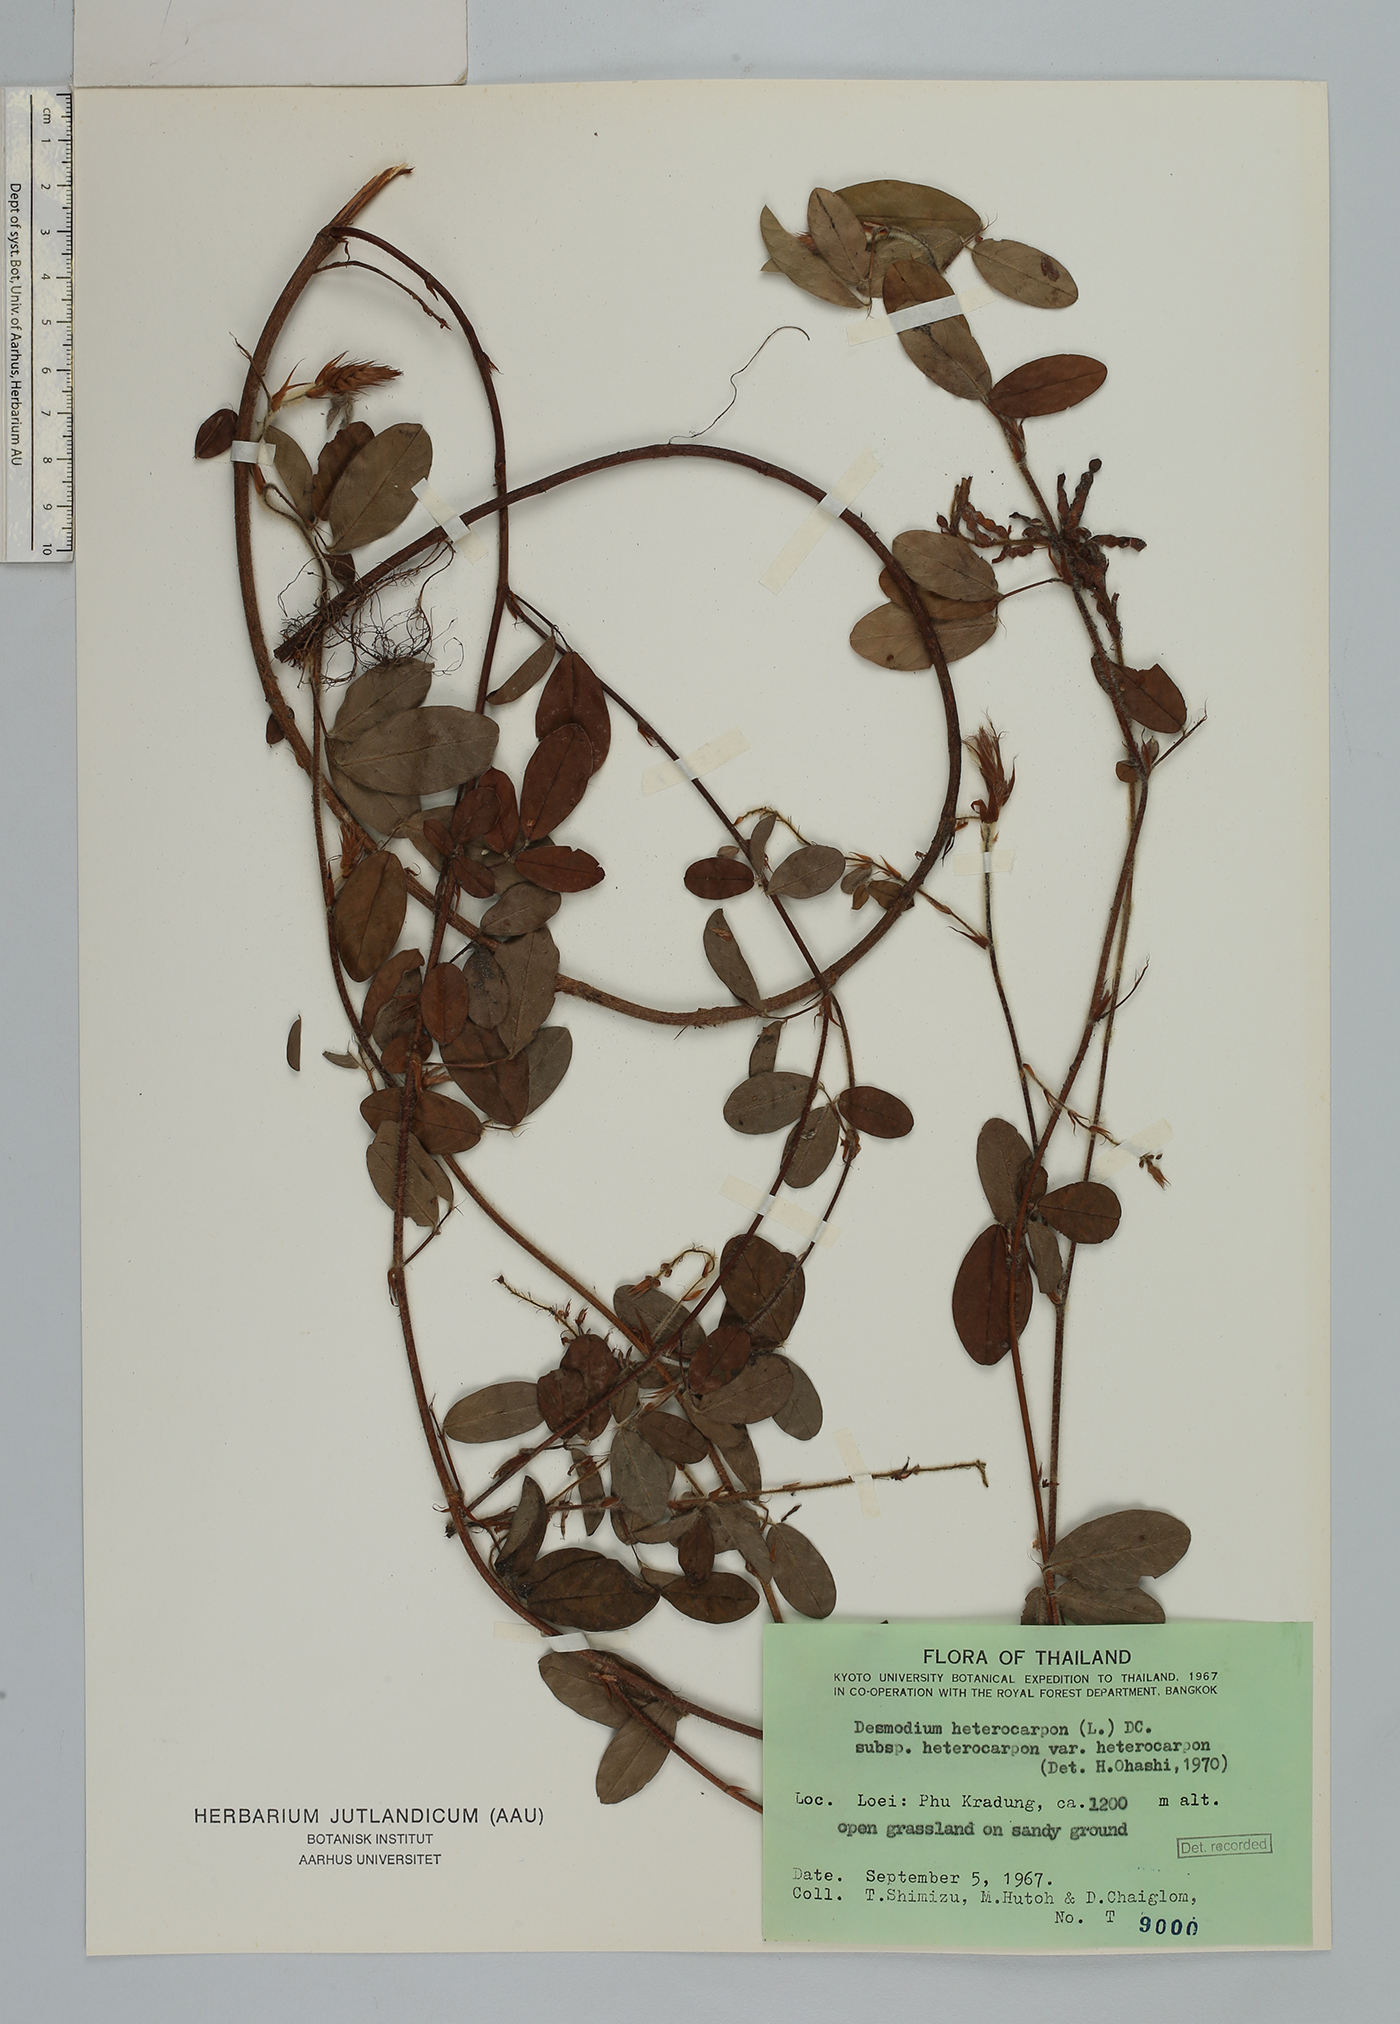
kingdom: Plantae
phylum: Tracheophyta
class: Magnoliopsida
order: Fabales
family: Fabaceae
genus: Grona
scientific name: Grona heterocarpos
